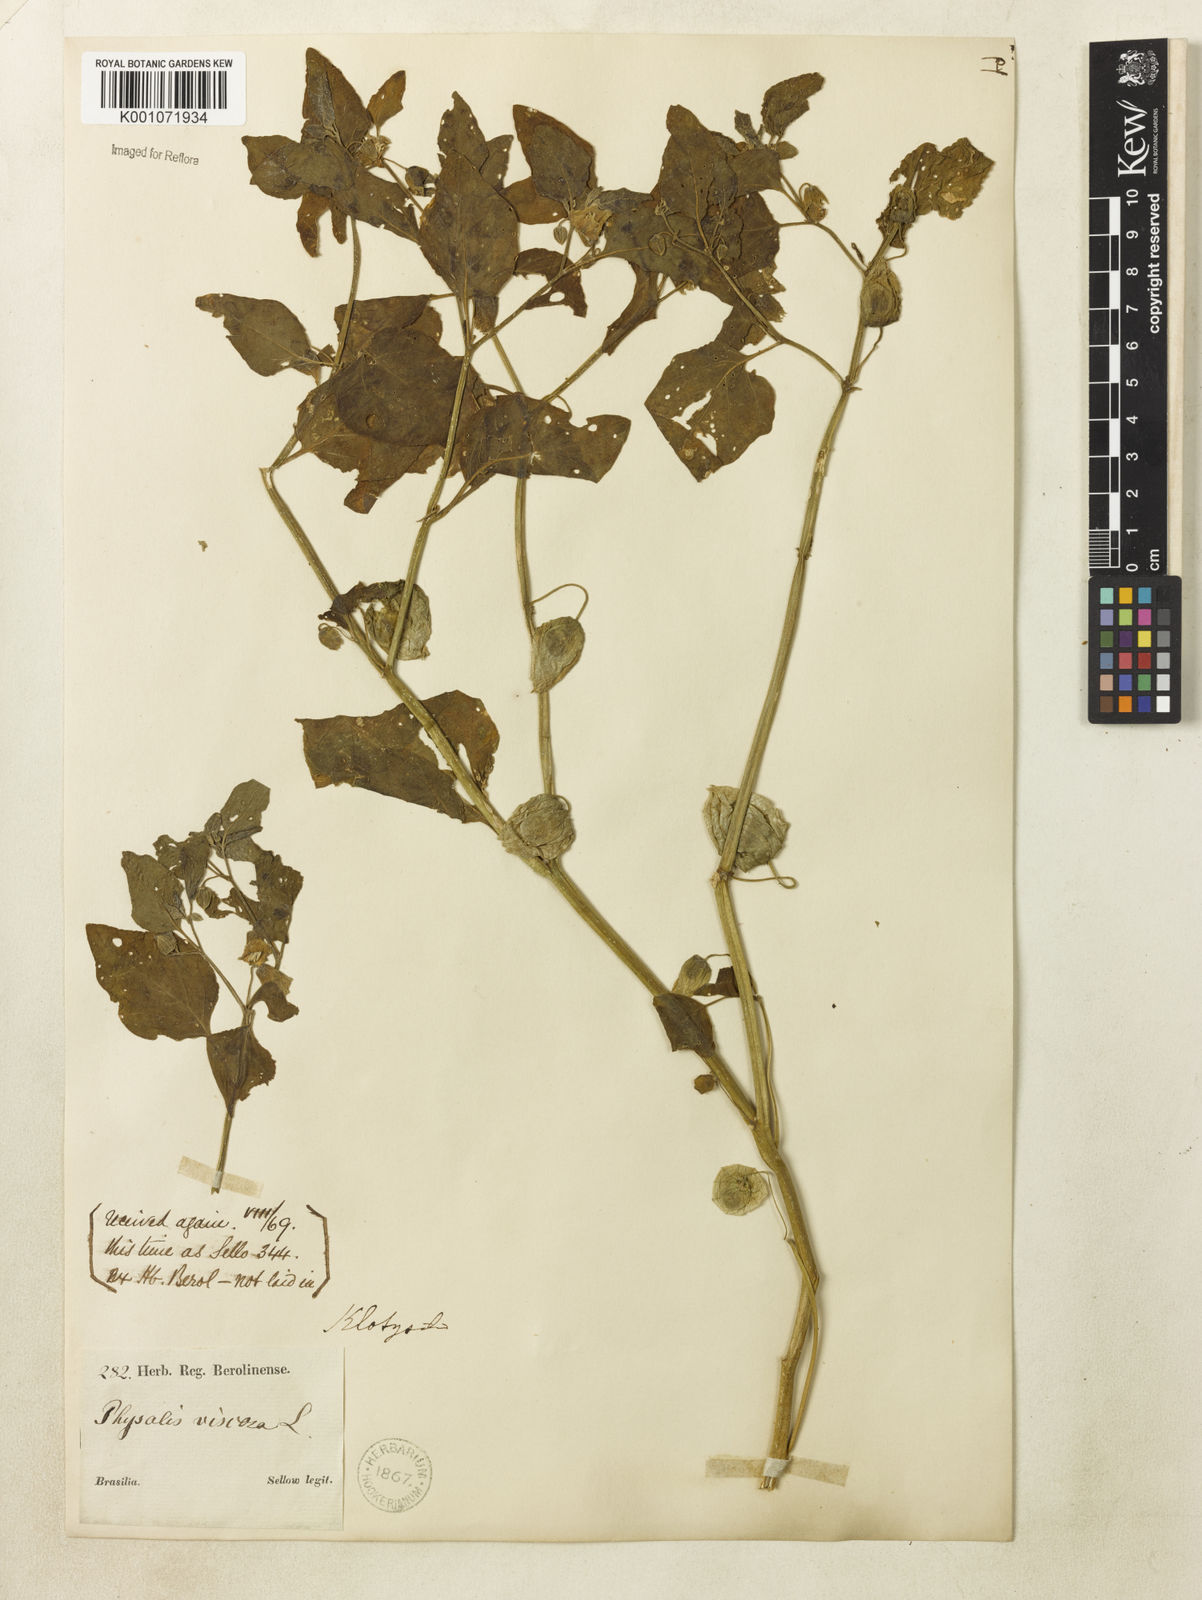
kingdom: Plantae
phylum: Tracheophyta
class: Magnoliopsida
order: Solanales
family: Solanaceae
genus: Physalis
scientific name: Physalis viscosa
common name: Stellate ground-cherry
